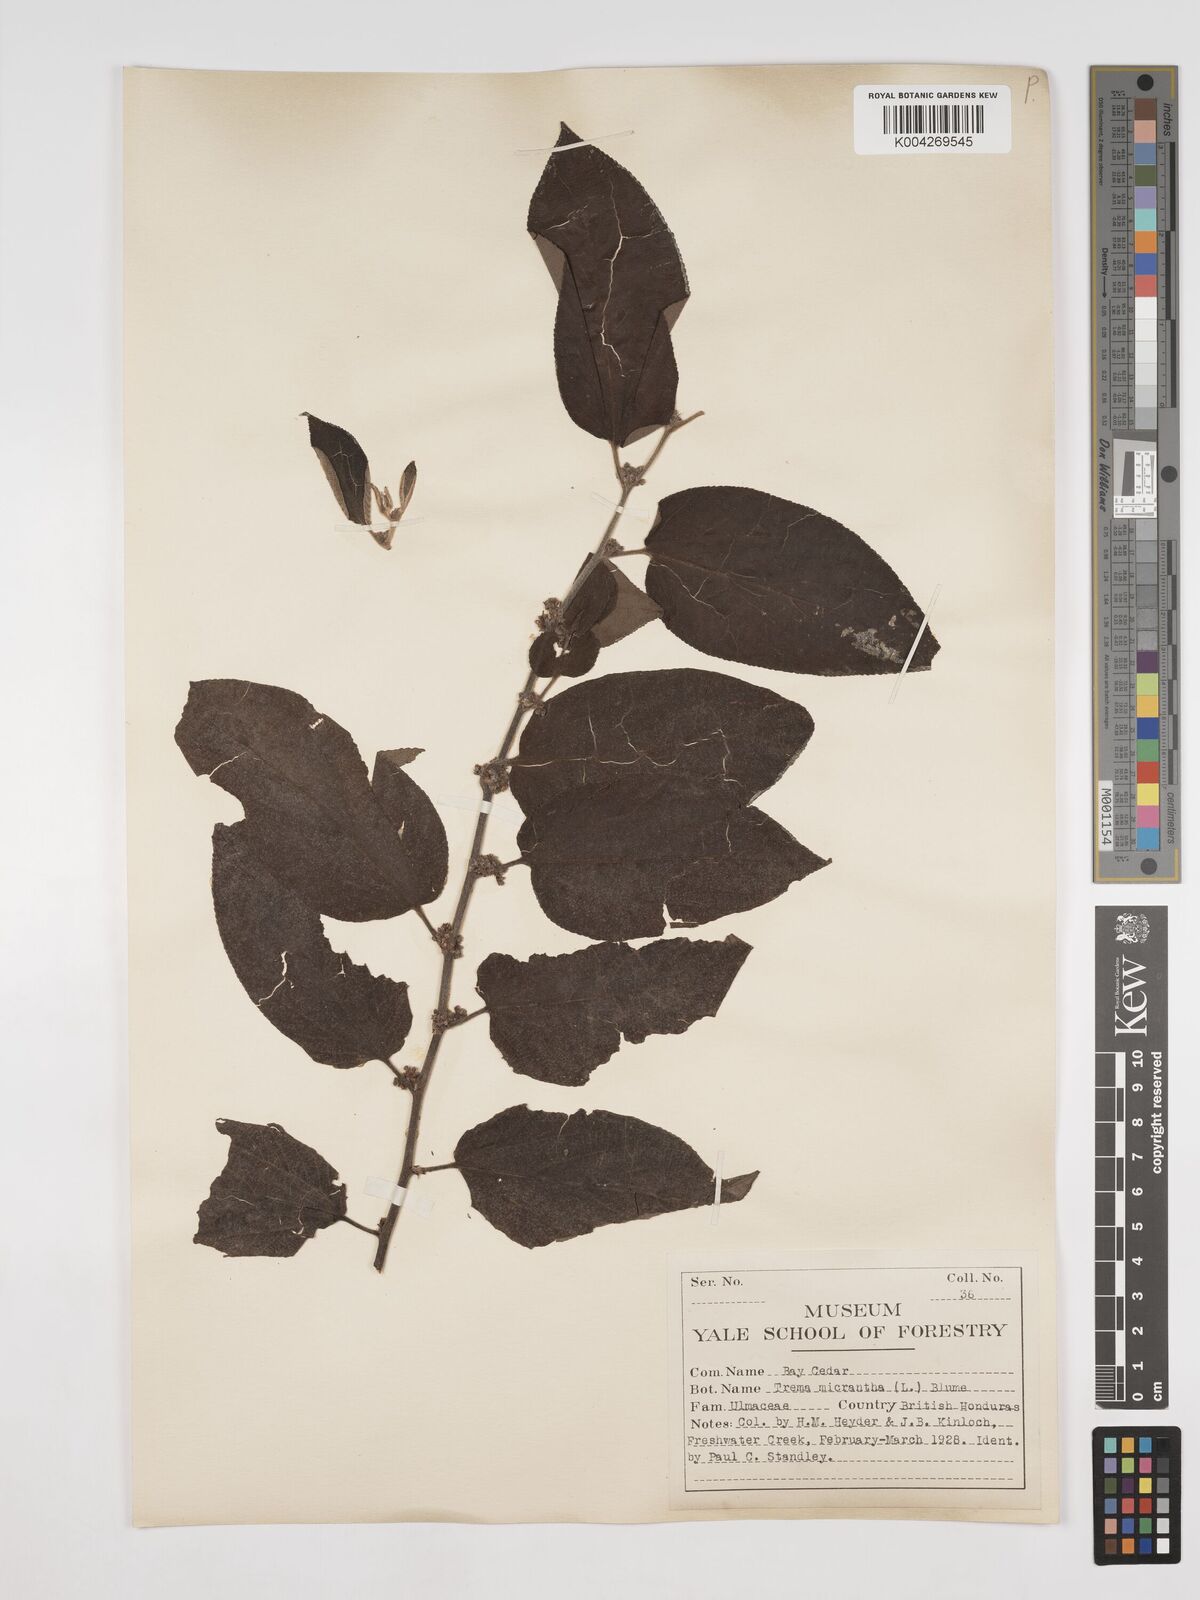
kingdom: Plantae
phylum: Tracheophyta
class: Magnoliopsida
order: Rosales
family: Cannabaceae
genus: Trema
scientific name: Trema micranthum
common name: Jamaican nettletree
